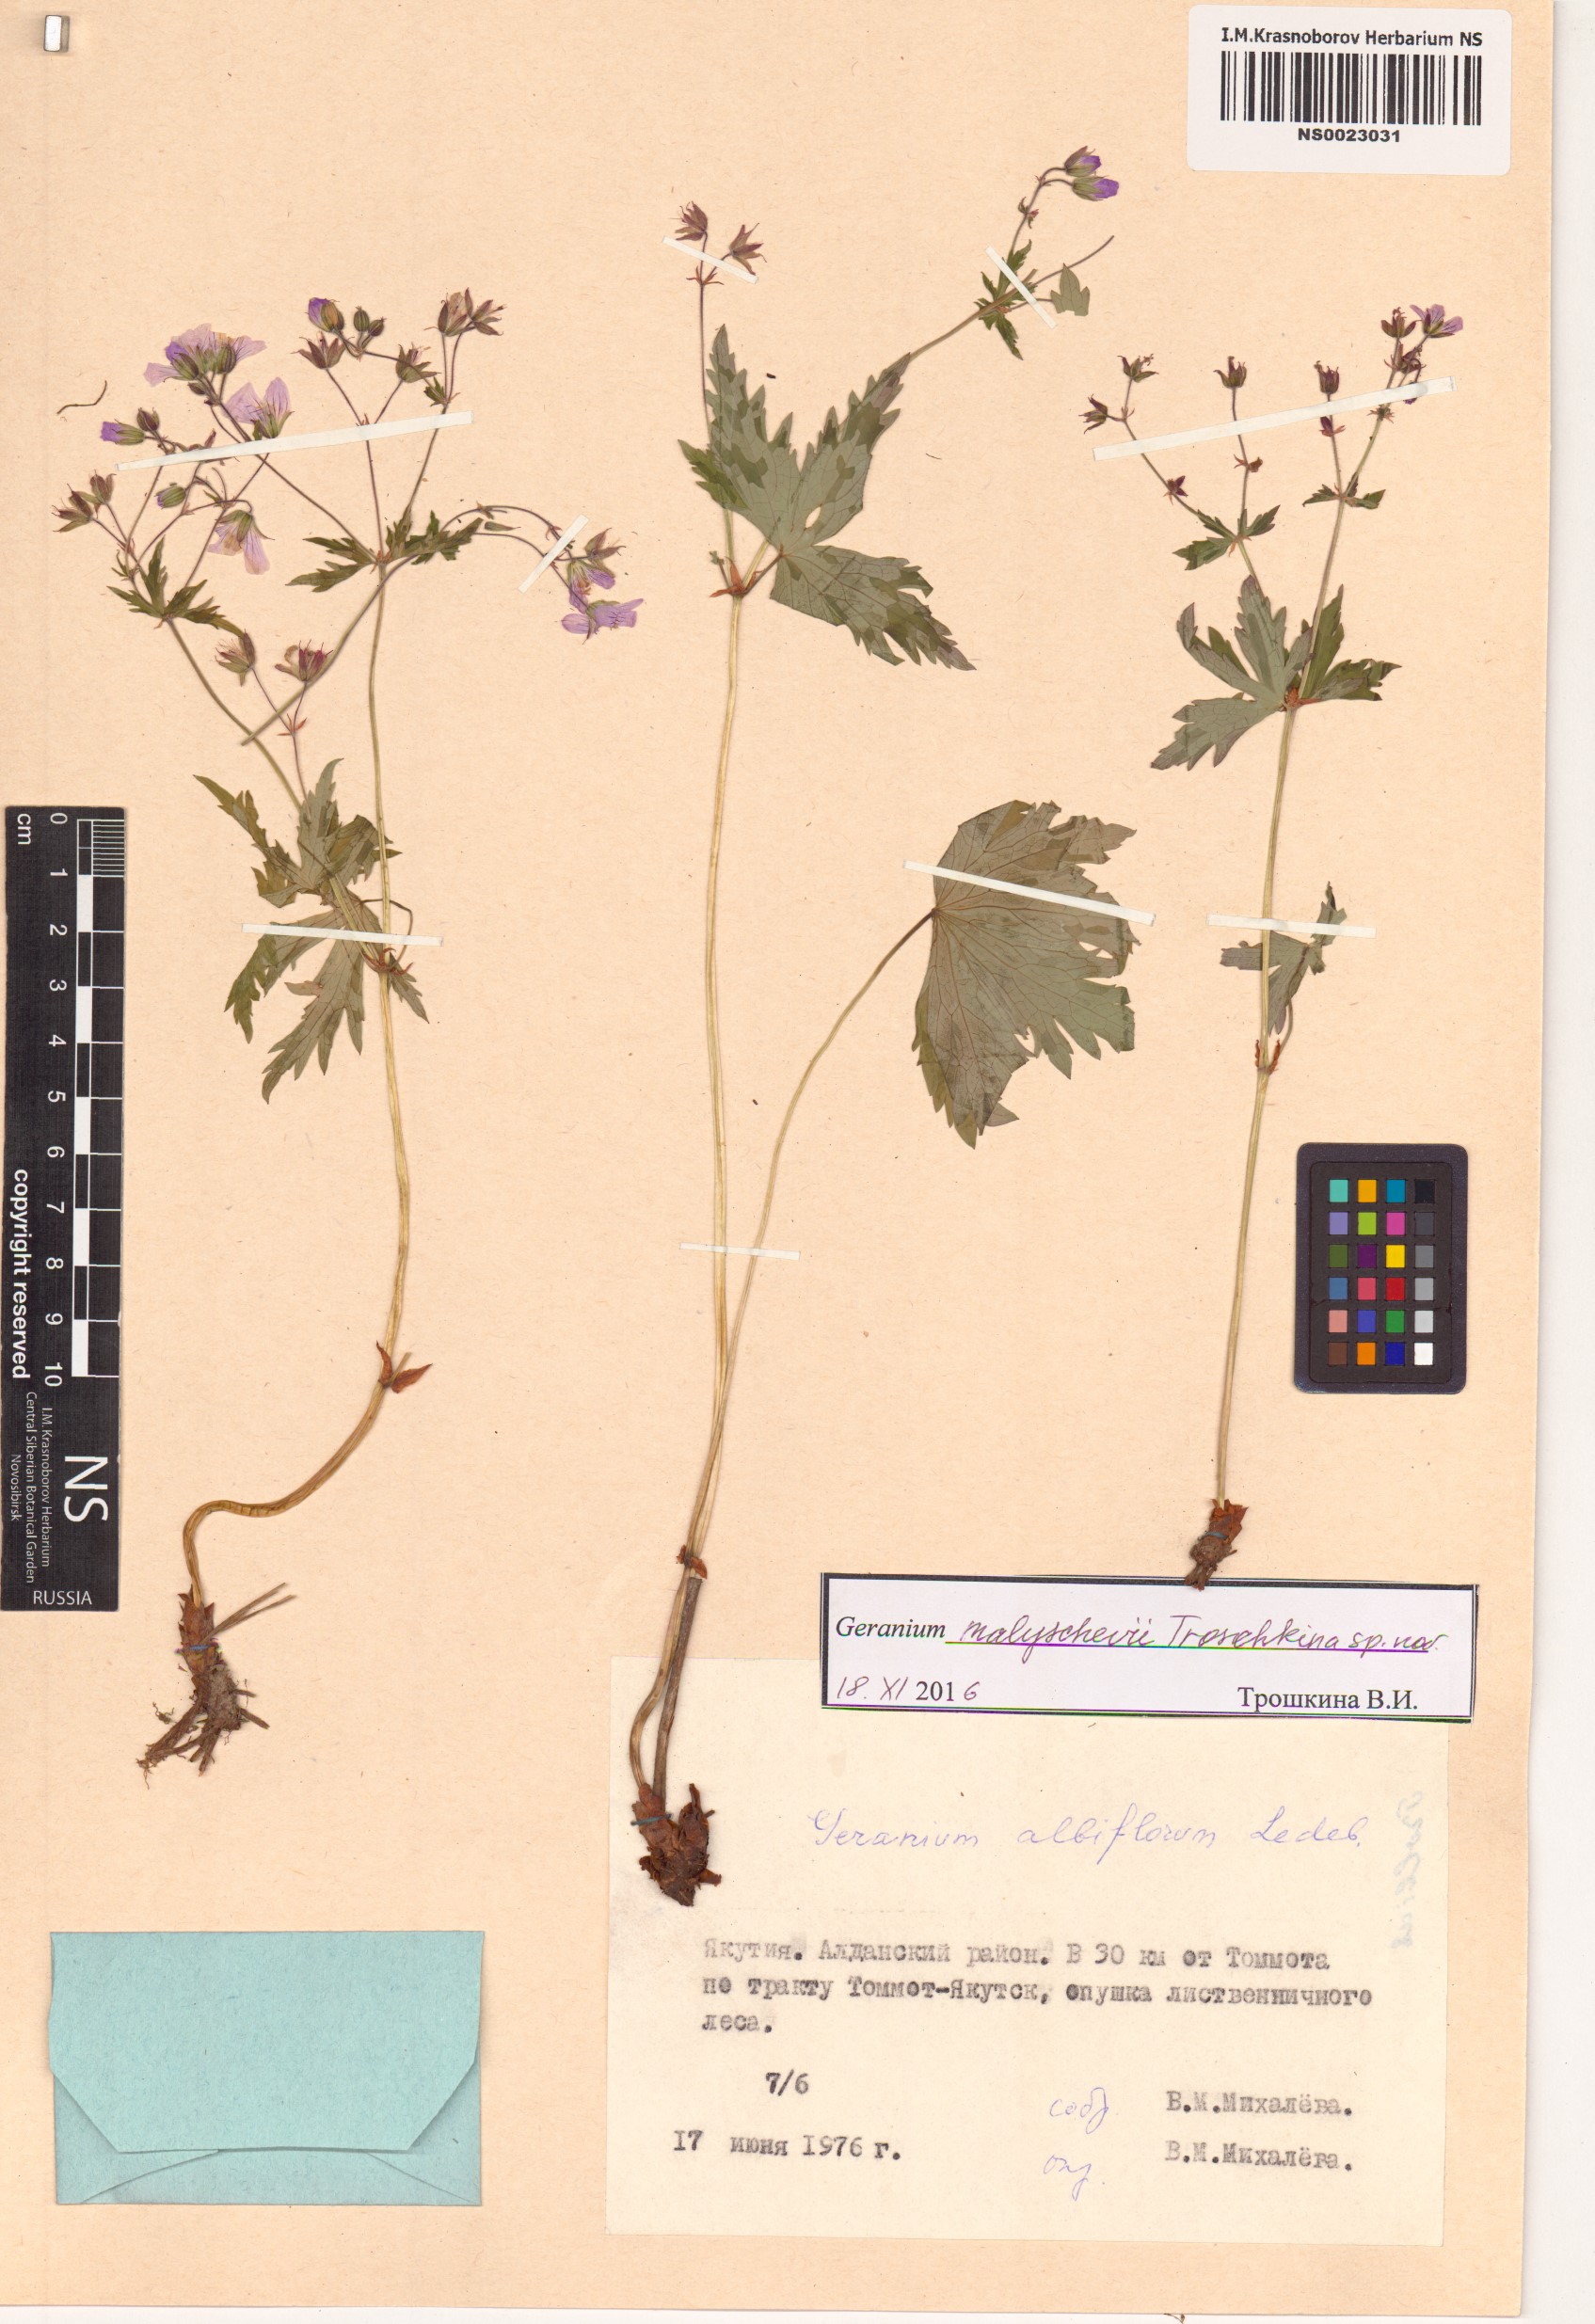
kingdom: Plantae
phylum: Tracheophyta
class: Magnoliopsida
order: Geraniales
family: Geraniaceae
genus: Geranium
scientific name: Geranium malyschevii
